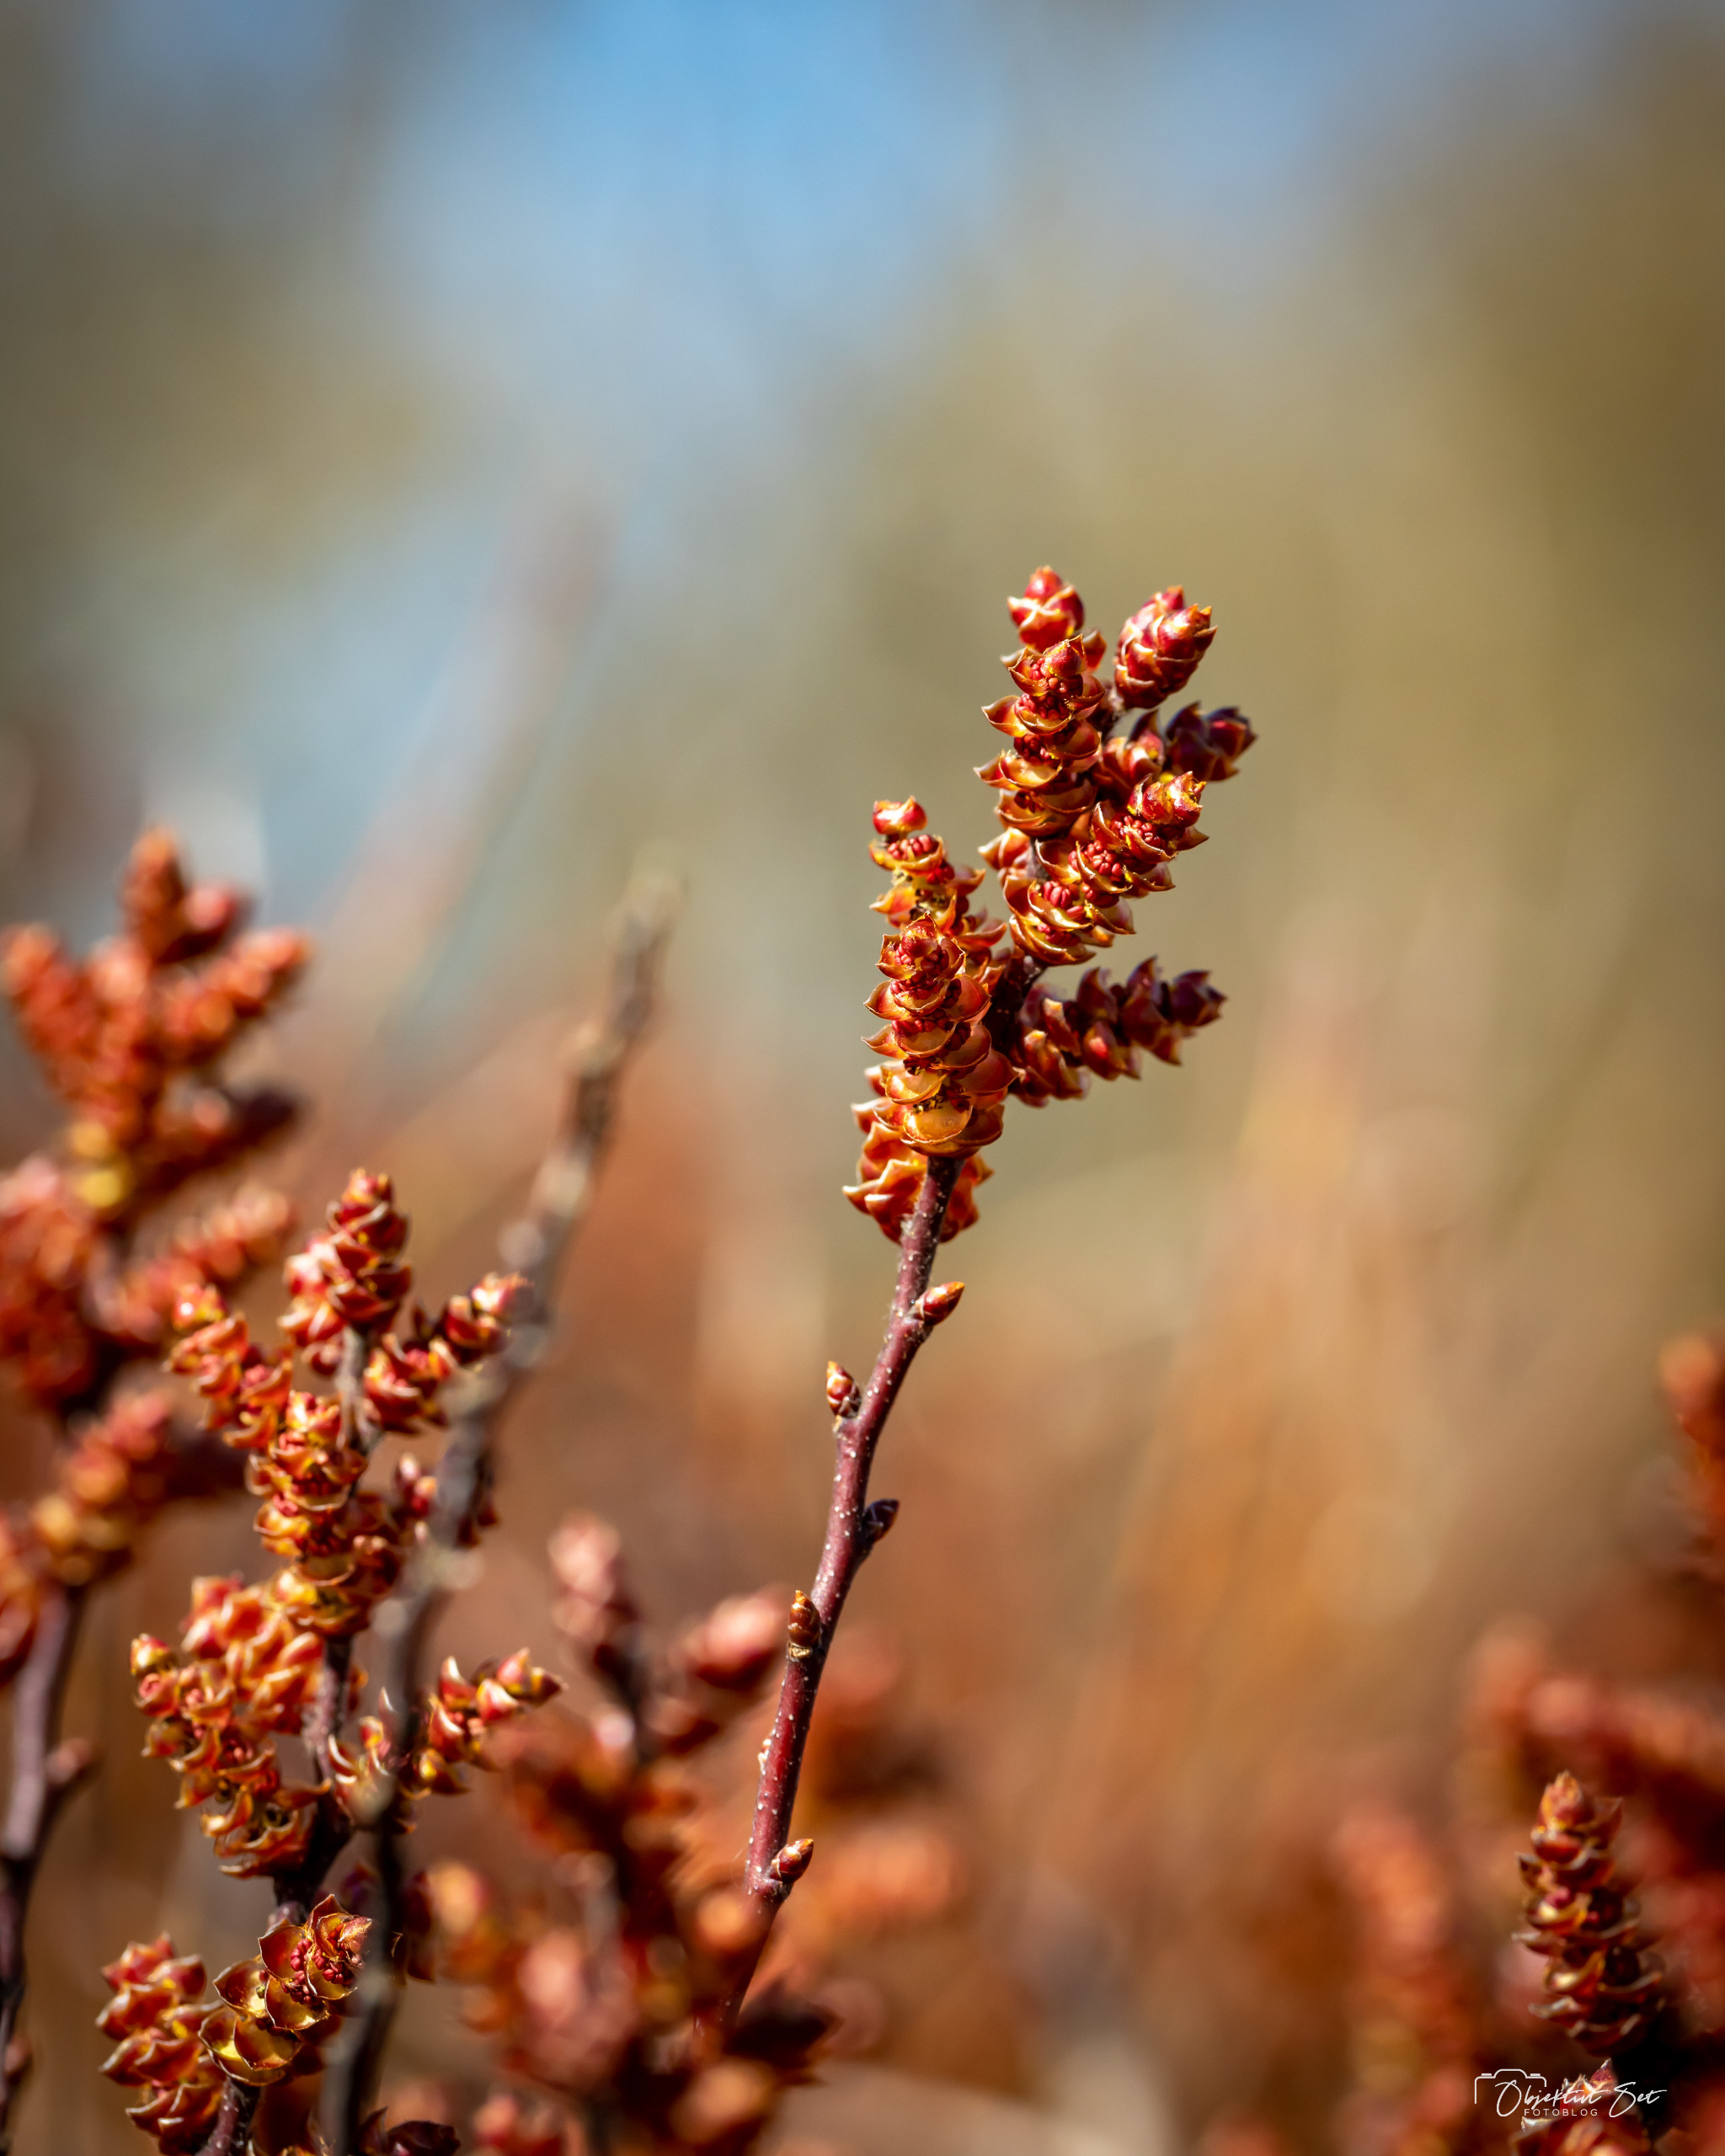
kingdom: Plantae
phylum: Tracheophyta
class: Magnoliopsida
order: Fagales
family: Myricaceae
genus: Myrica
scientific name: Myrica gale
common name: Pors
